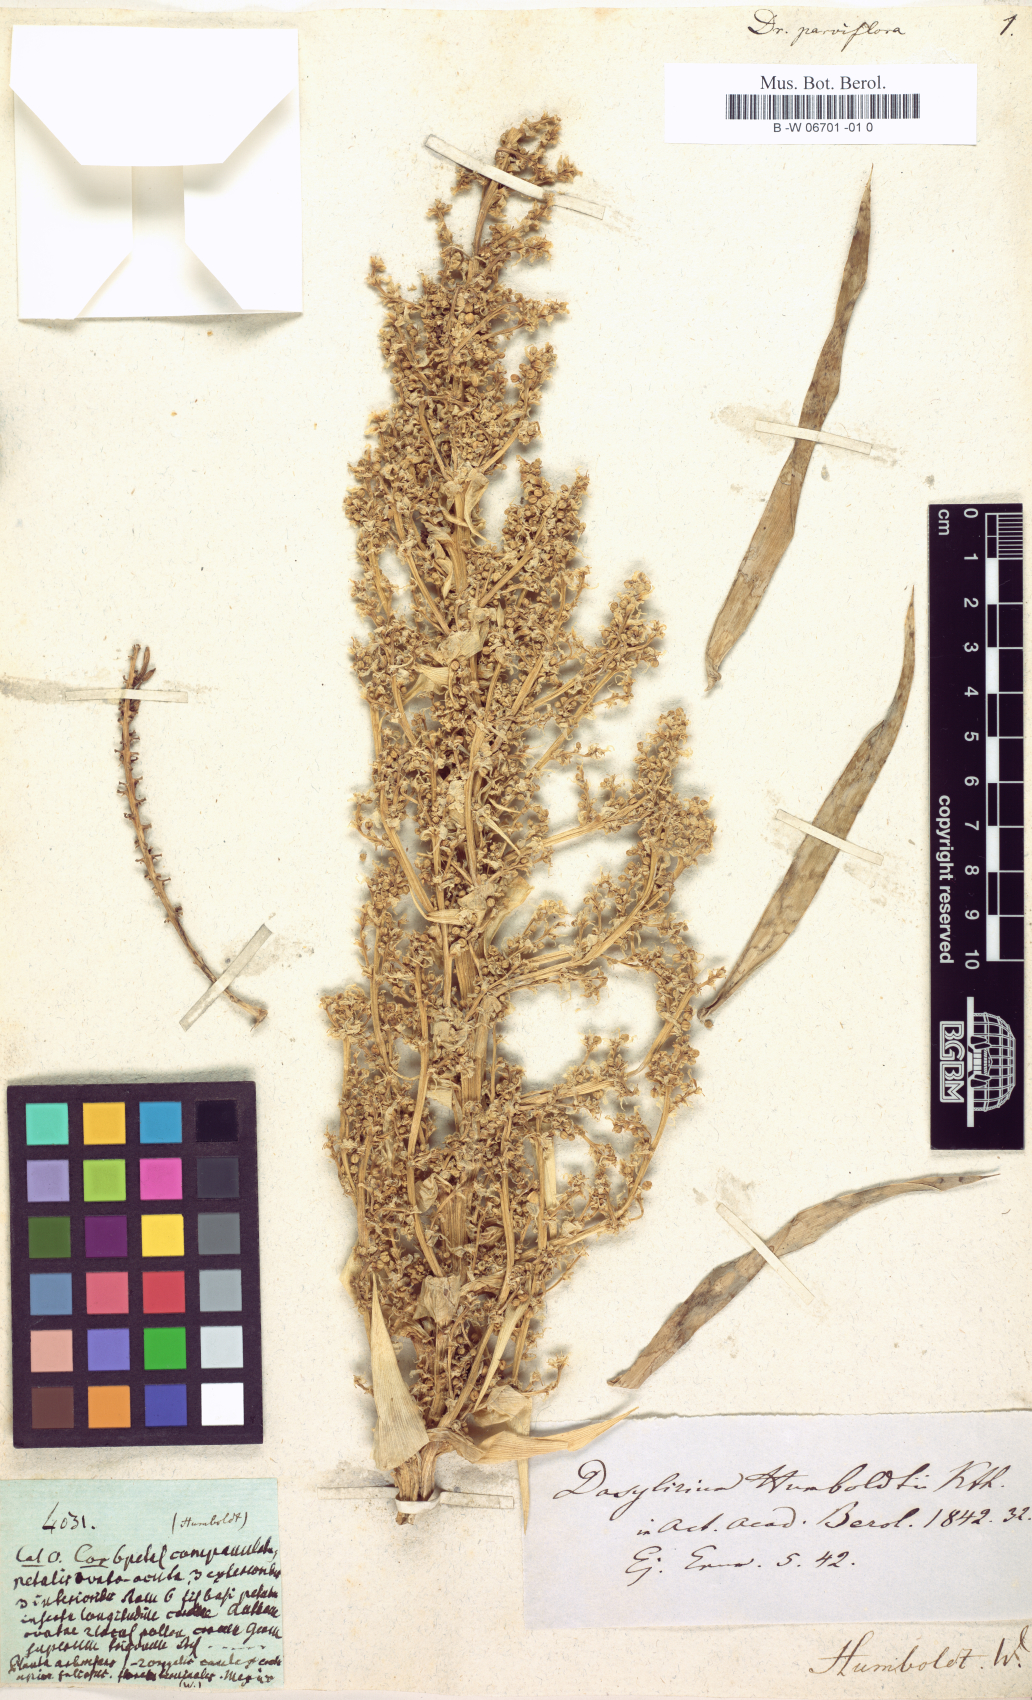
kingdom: Plantae
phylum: Tracheophyta
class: Liliopsida
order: Asparagales
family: Asparagaceae
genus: Dracaena
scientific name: Dracaena parviflora
